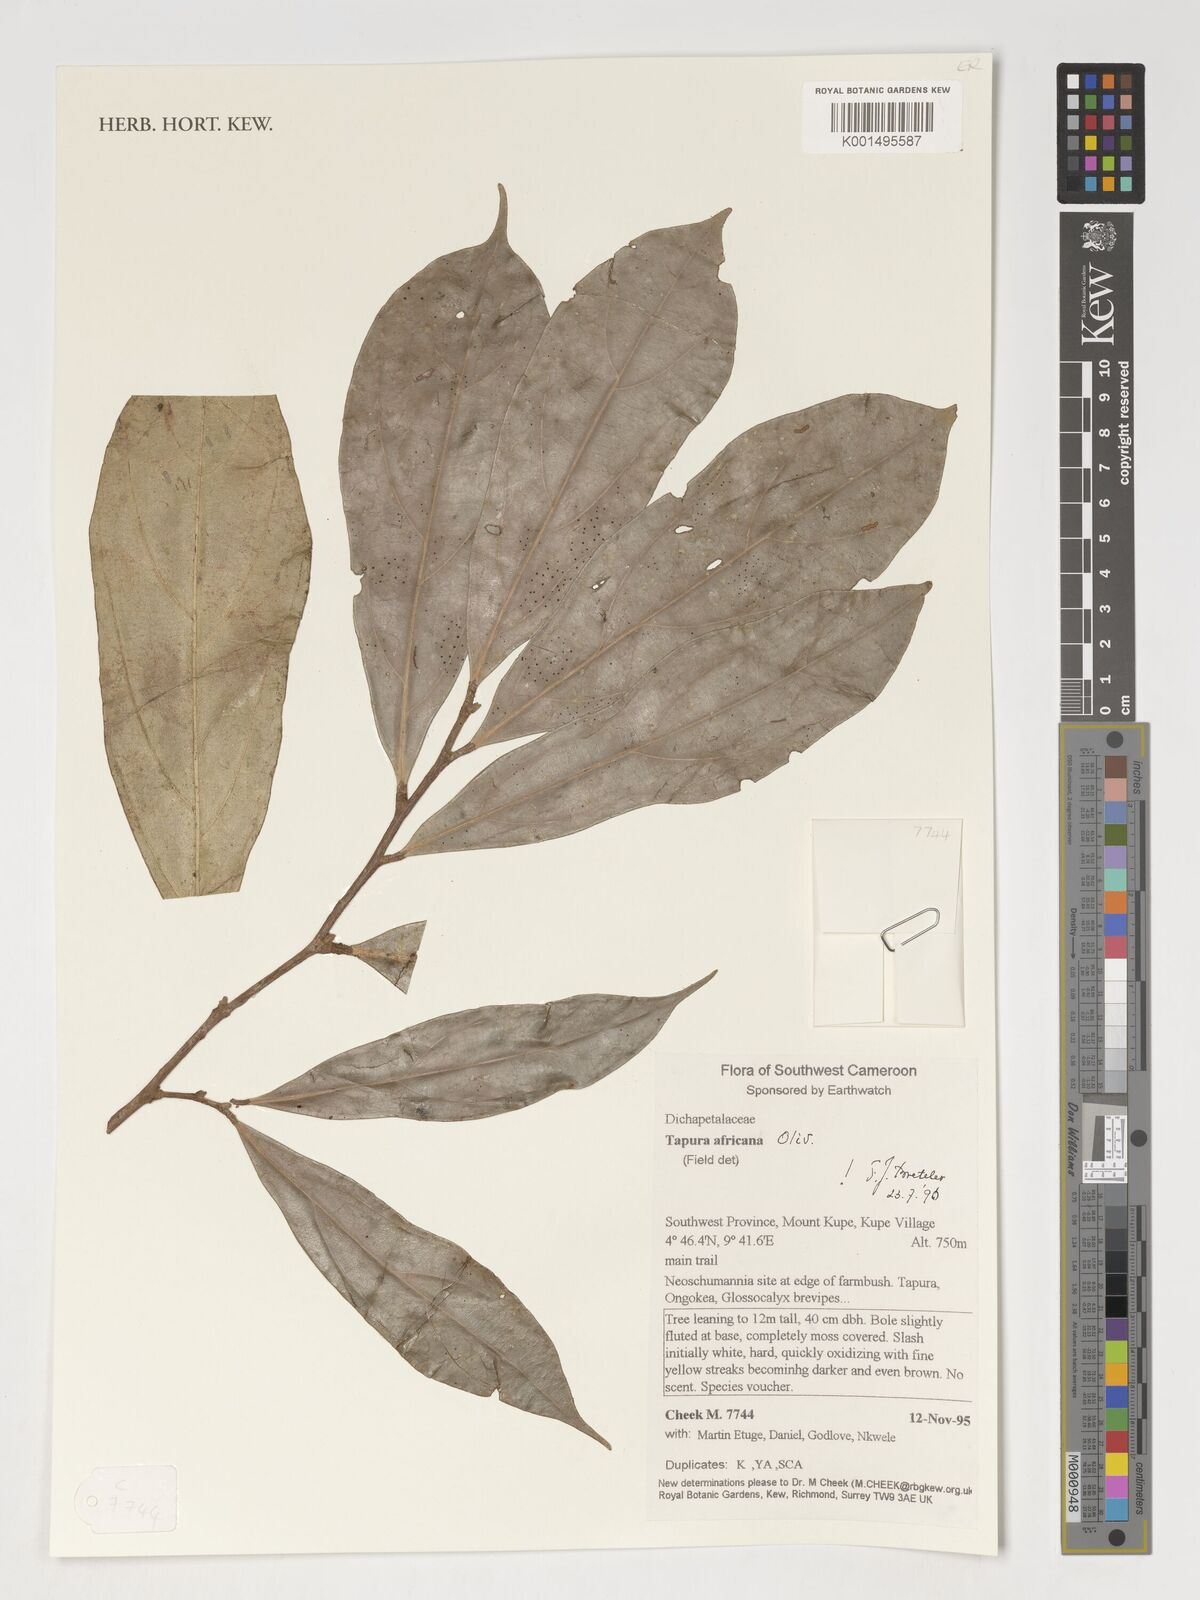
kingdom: Plantae
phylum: Tracheophyta
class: Magnoliopsida
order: Malpighiales
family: Dichapetalaceae
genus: Tapura
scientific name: Tapura africana
